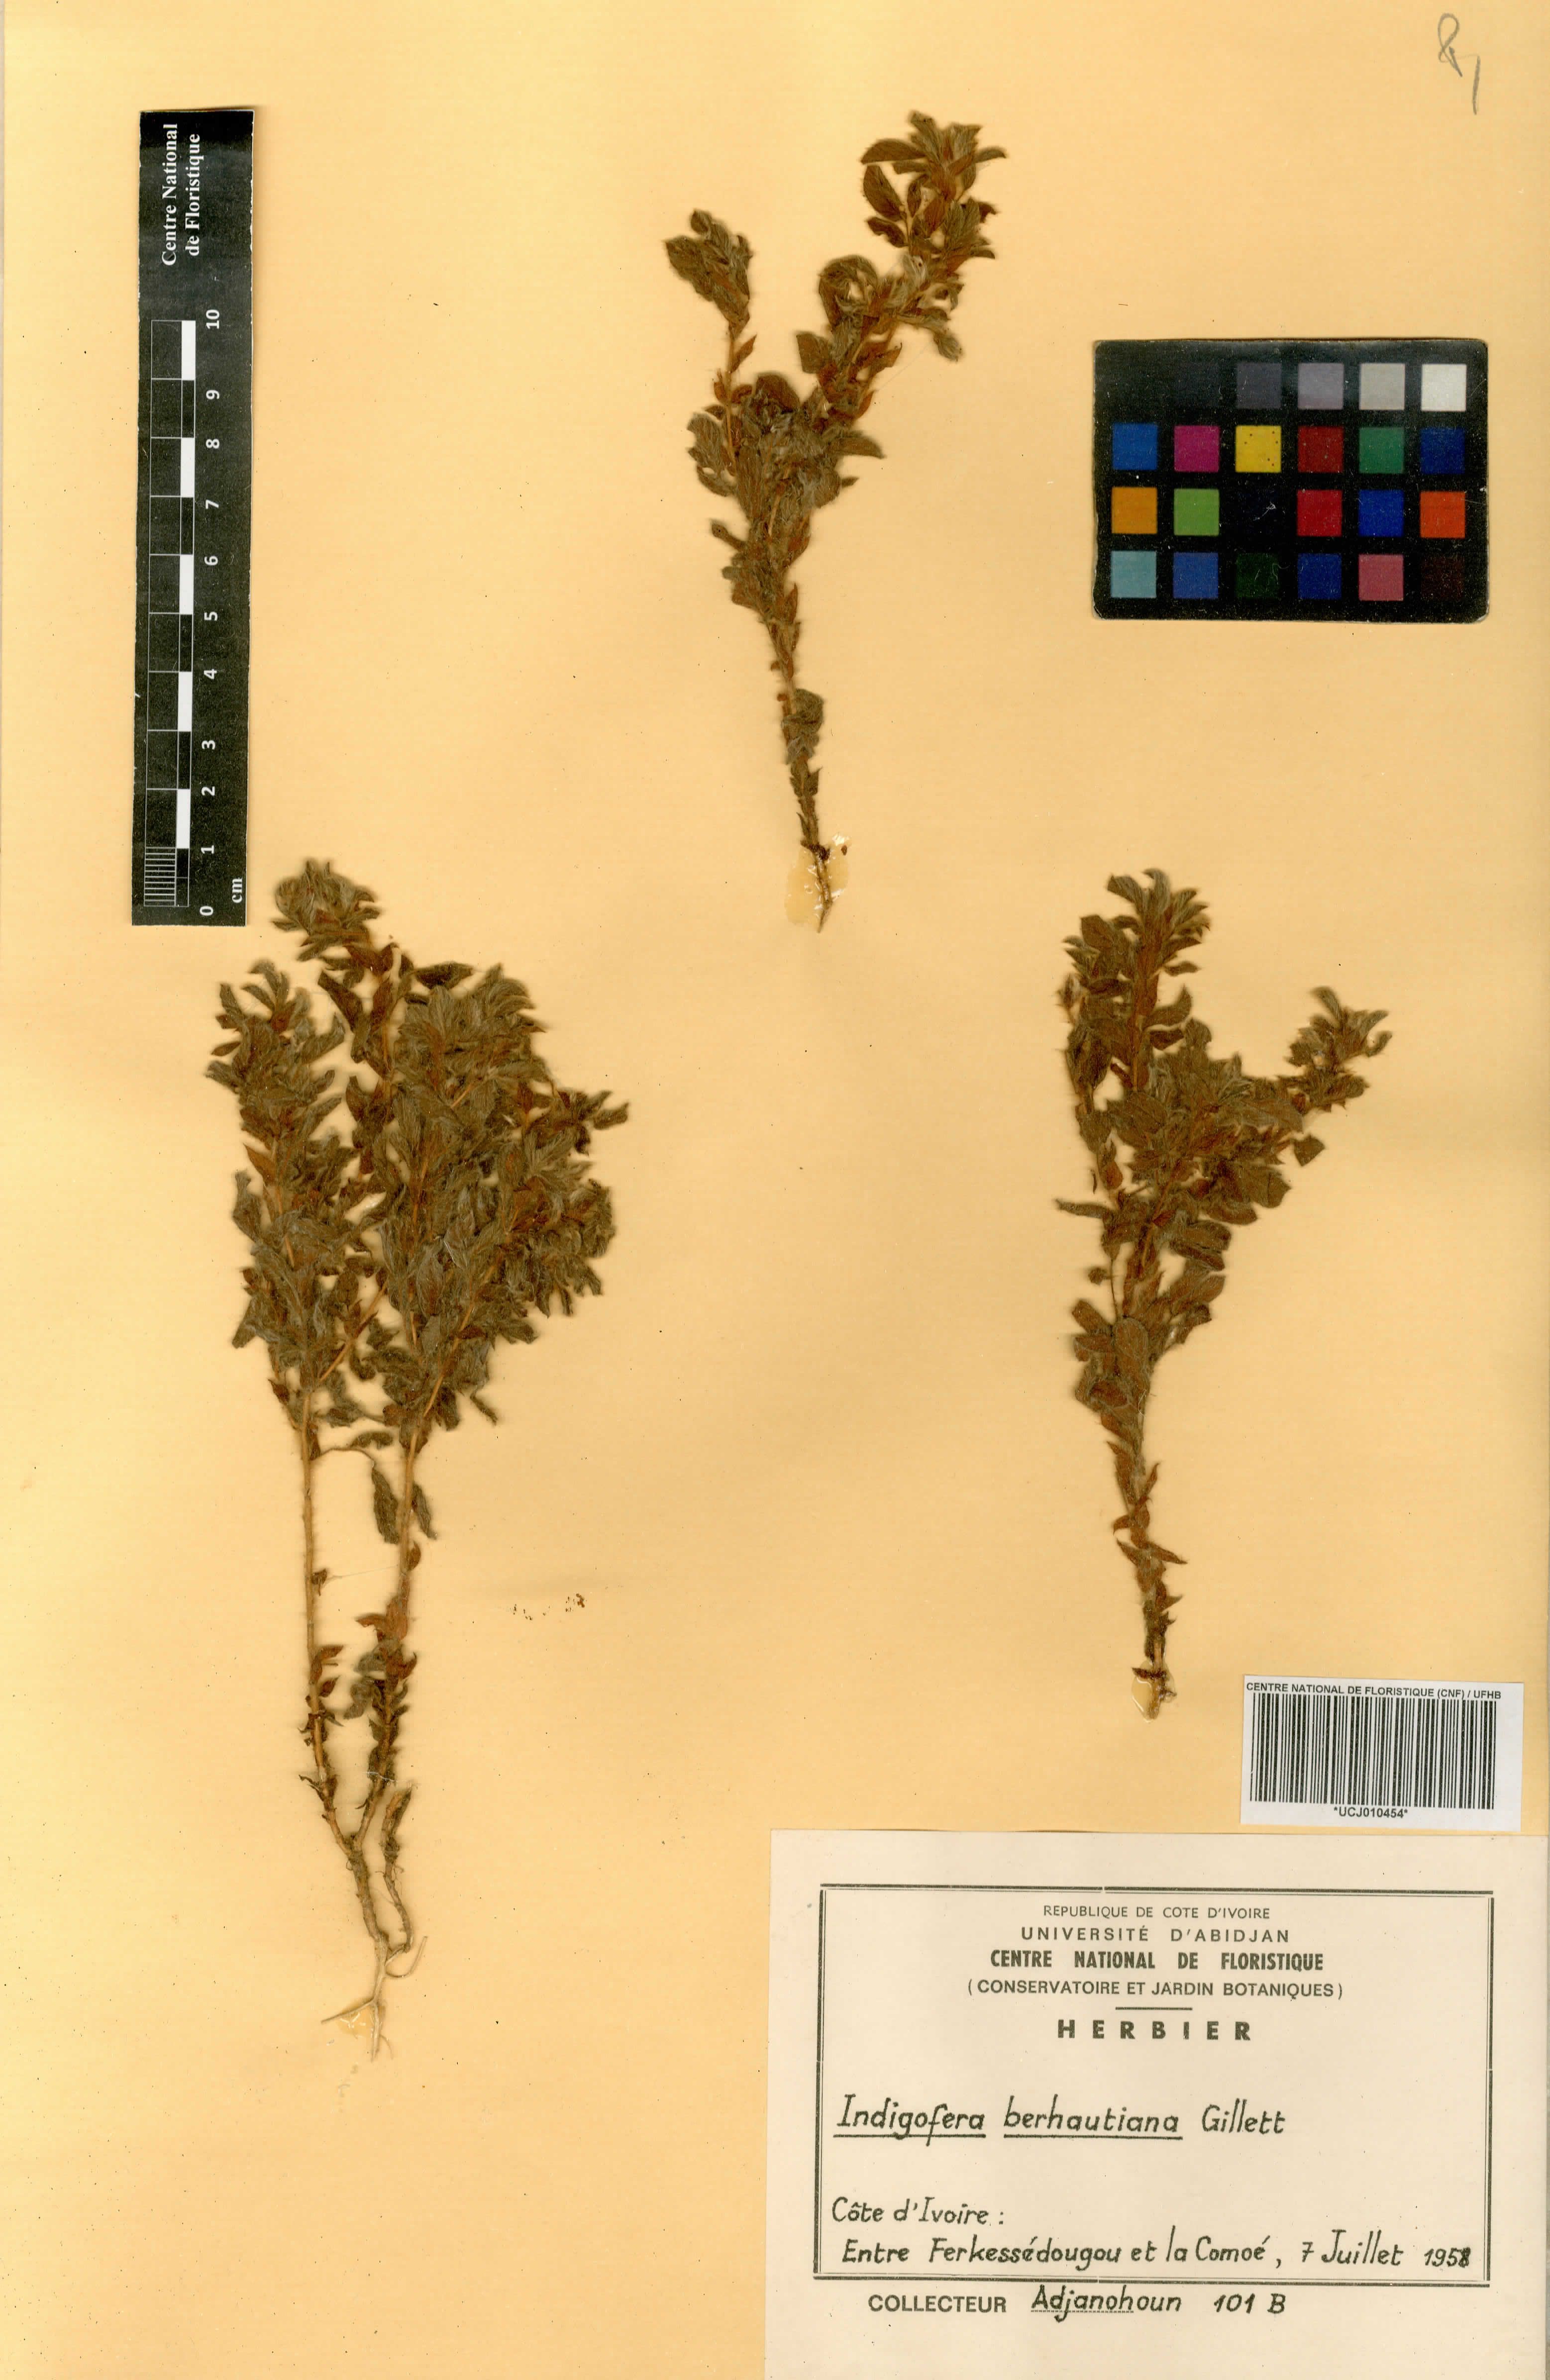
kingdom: Plantae
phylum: Tracheophyta
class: Magnoliopsida
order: Fabales
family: Fabaceae
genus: Indigofera
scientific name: Indigofera berhautiana
